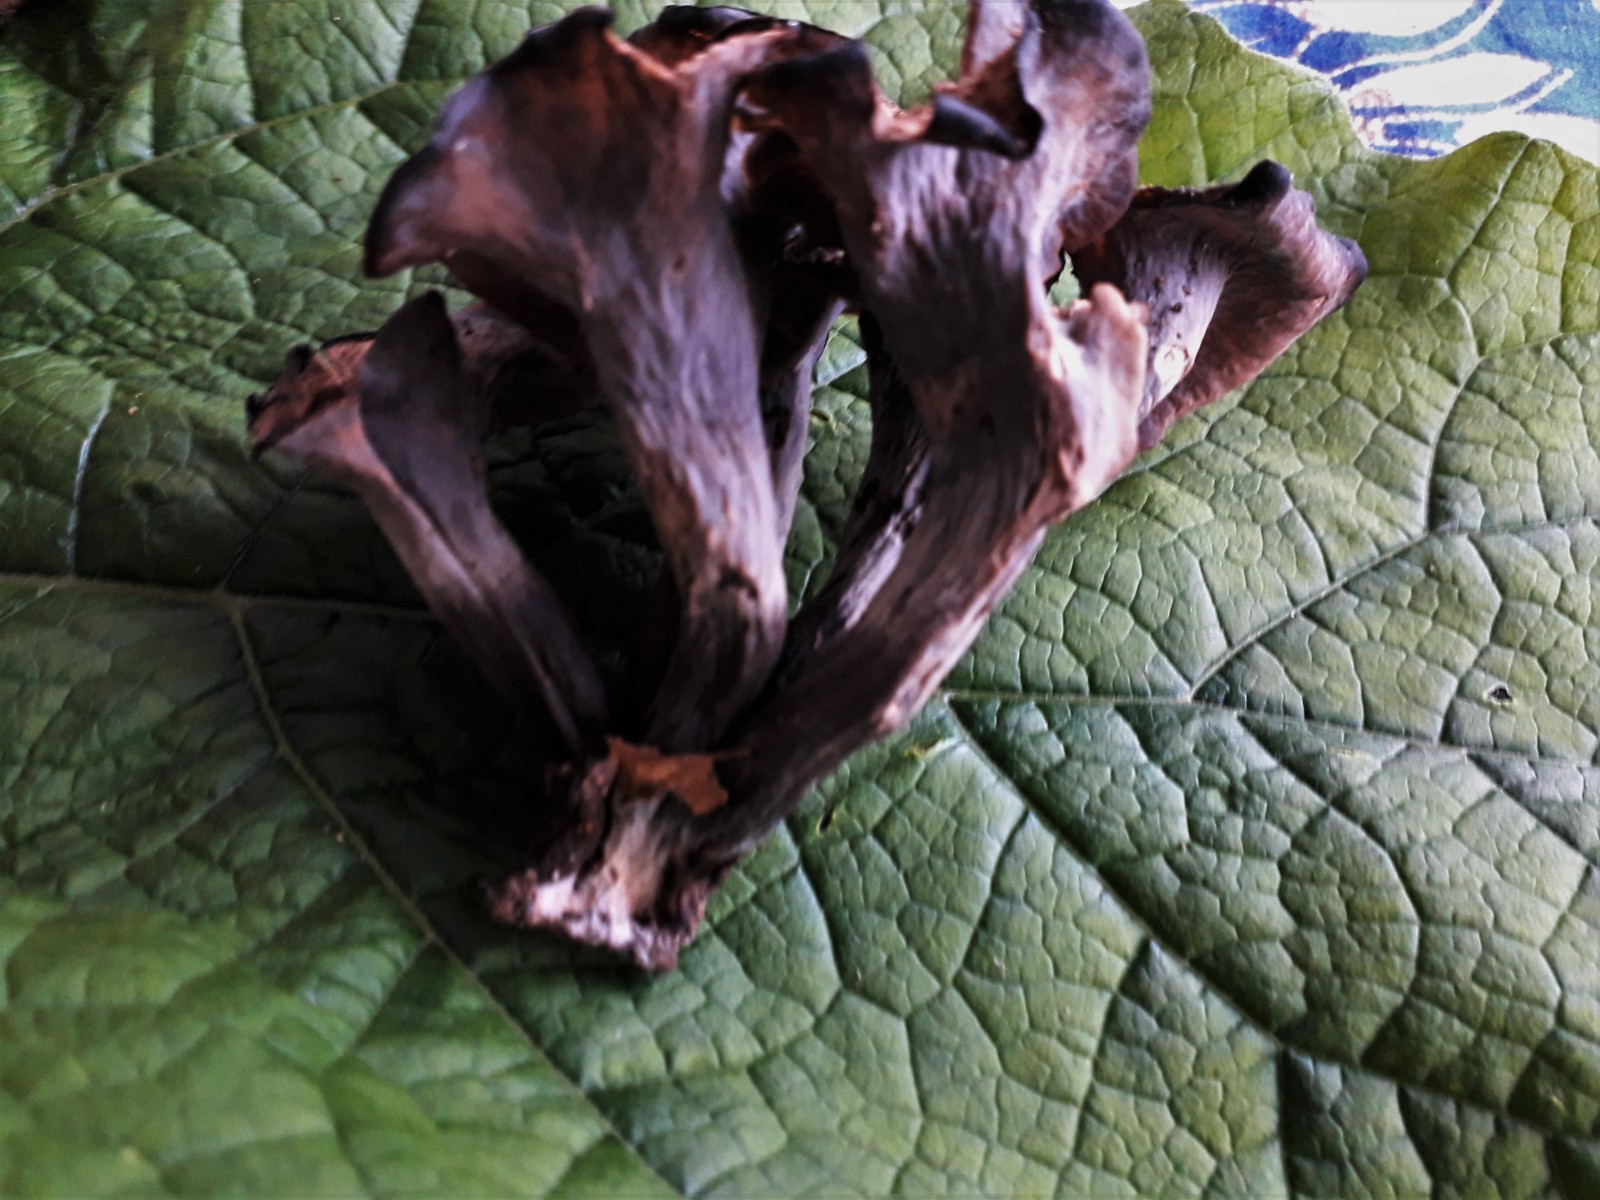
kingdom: Fungi
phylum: Basidiomycota
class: Agaricomycetes
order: Cantharellales
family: Hydnaceae
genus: Craterellus
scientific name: Craterellus cornucopioides
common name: trompetsvamp
